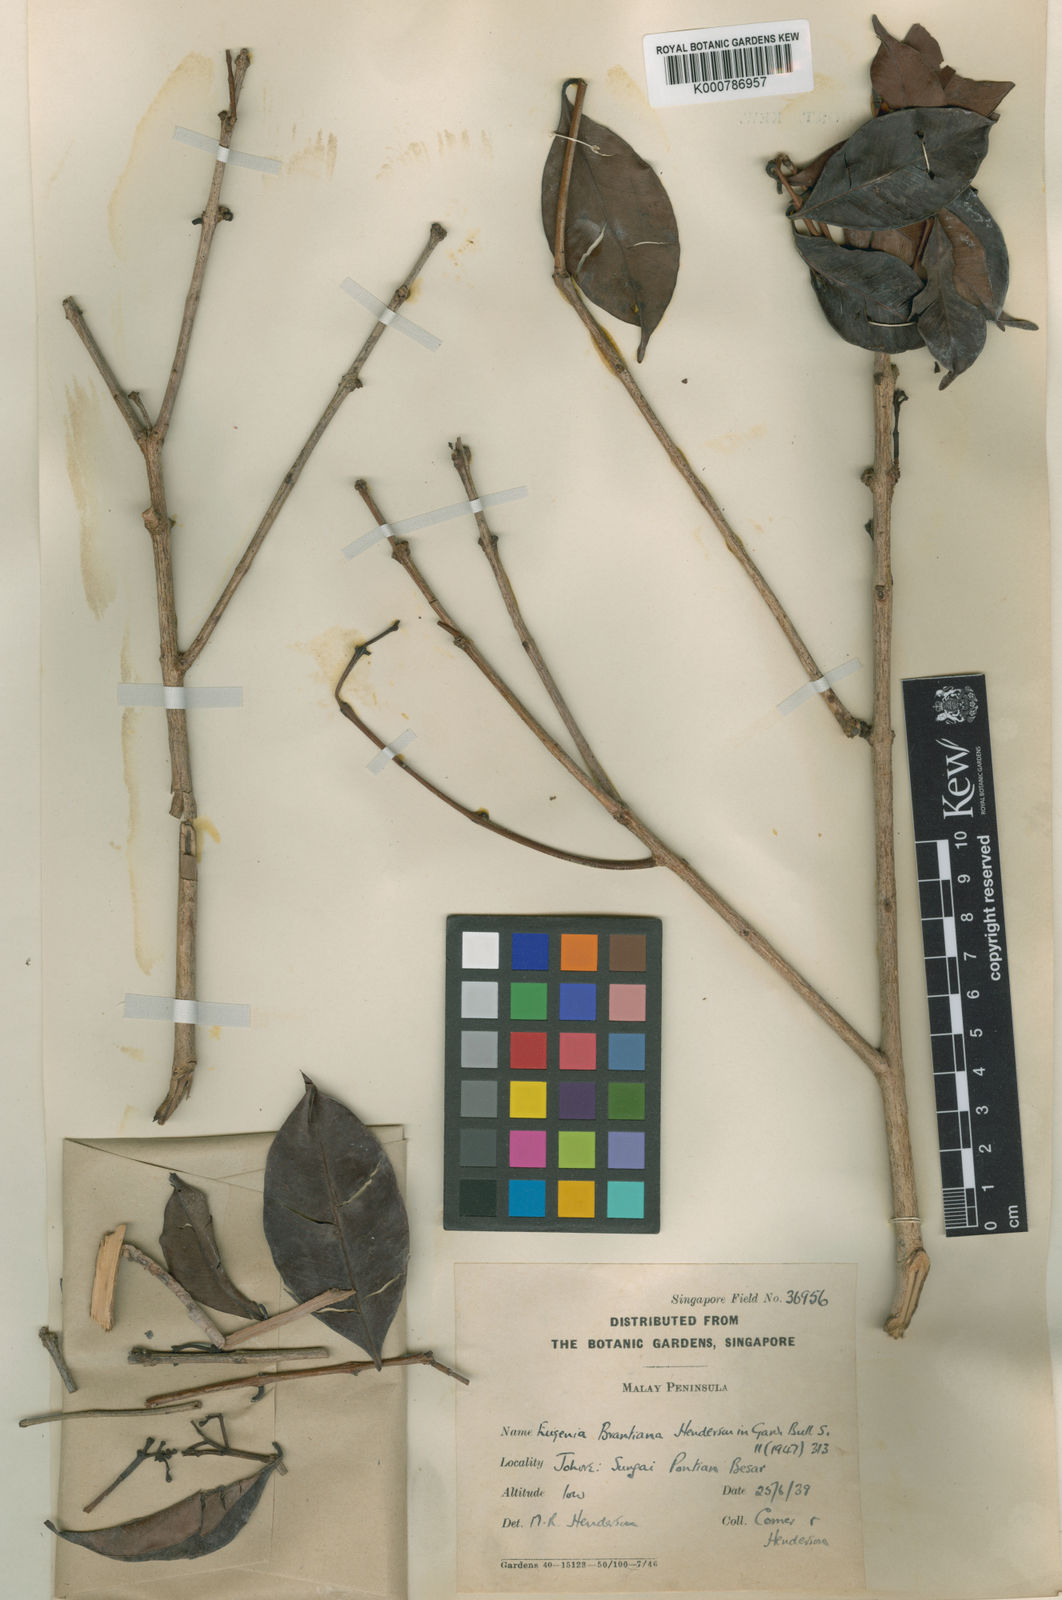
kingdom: Plantae
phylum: Tracheophyta
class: Magnoliopsida
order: Myrtales
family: Myrtaceae
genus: Syzygium
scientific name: Syzygium
